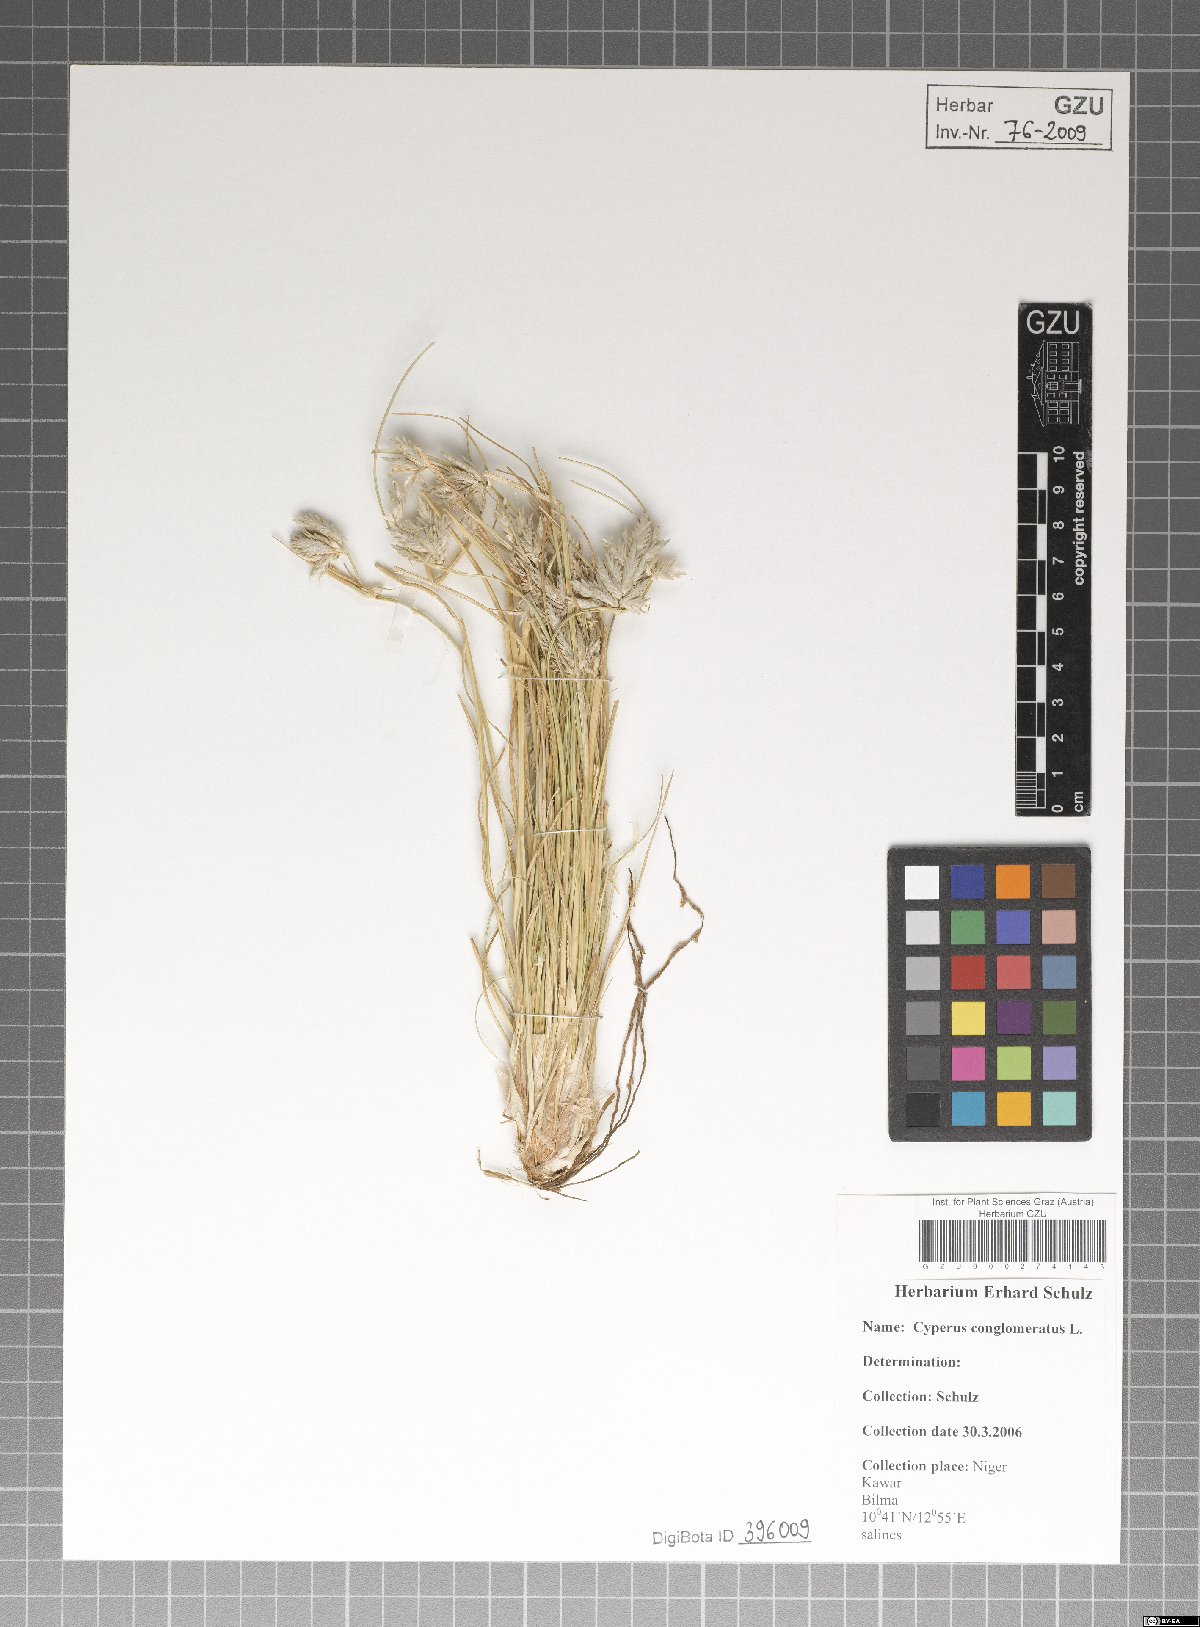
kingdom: Plantae
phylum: Tracheophyta
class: Liliopsida
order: Poales
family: Cyperaceae
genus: Cyperus
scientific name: Cyperus conglomeratus
